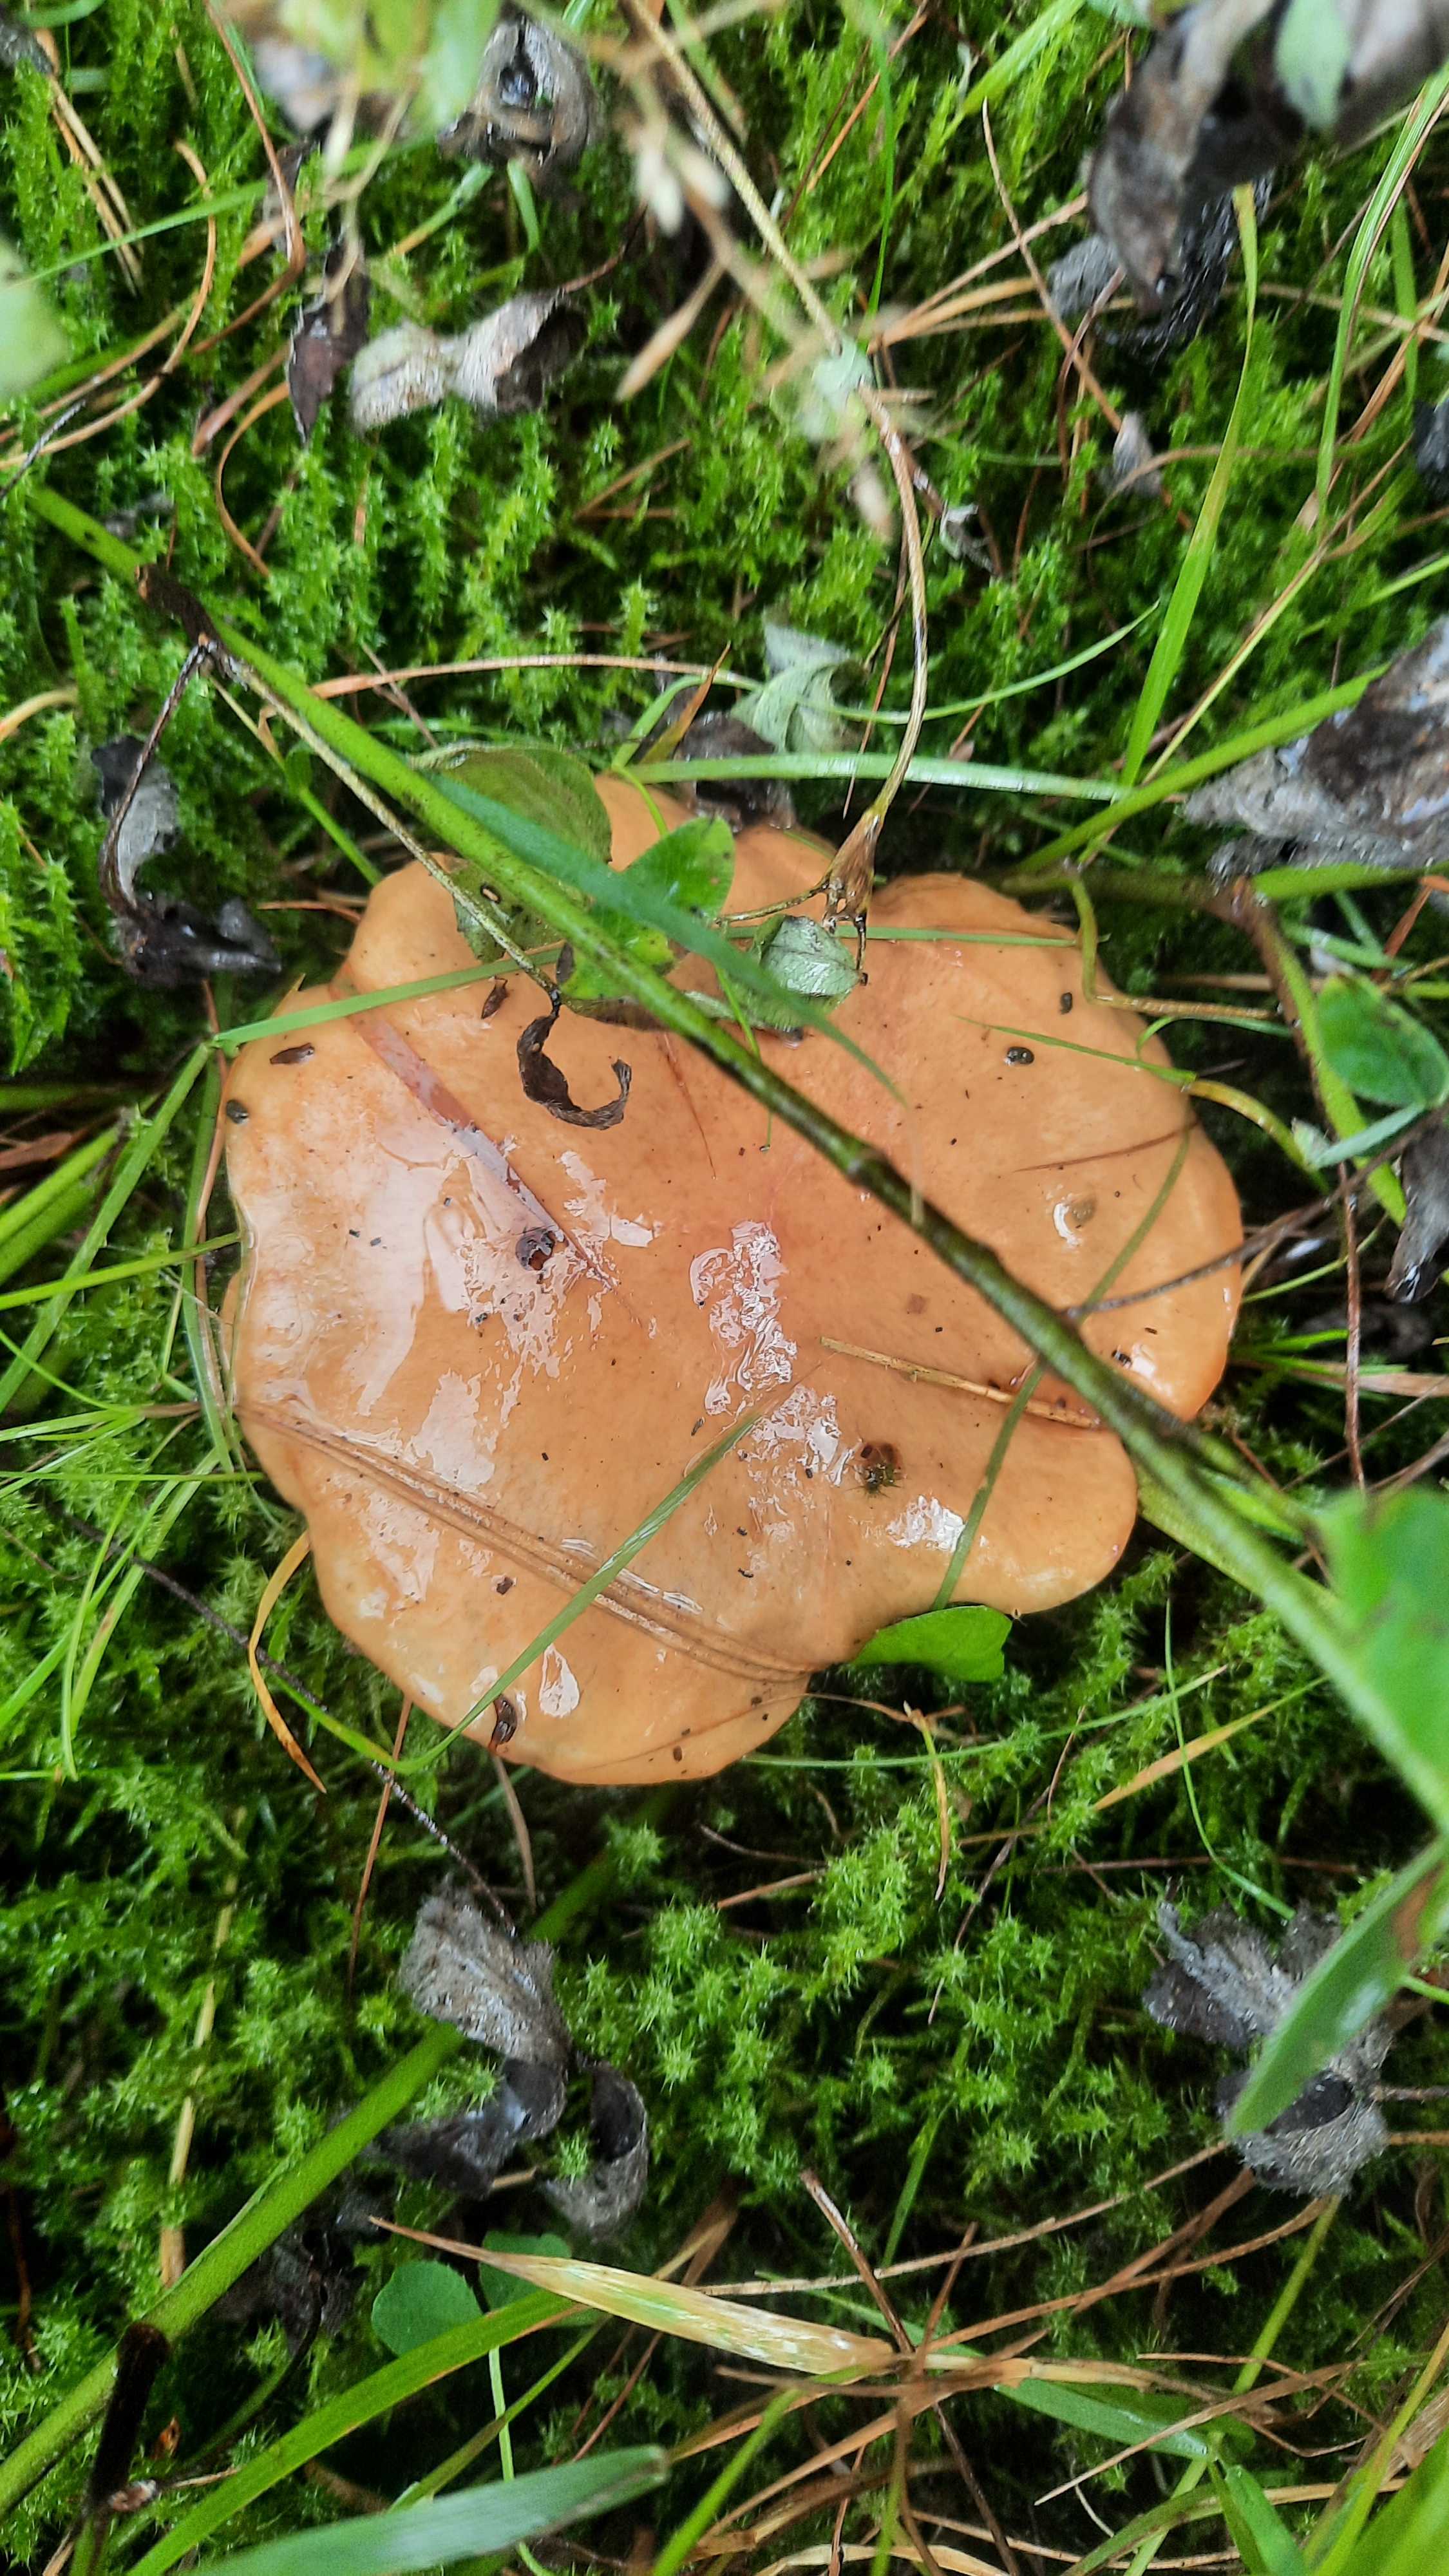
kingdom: Fungi
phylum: Basidiomycota
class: Agaricomycetes
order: Boletales
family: Suillaceae
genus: Suillus
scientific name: Suillus luteus
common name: brungul slimrørhat
